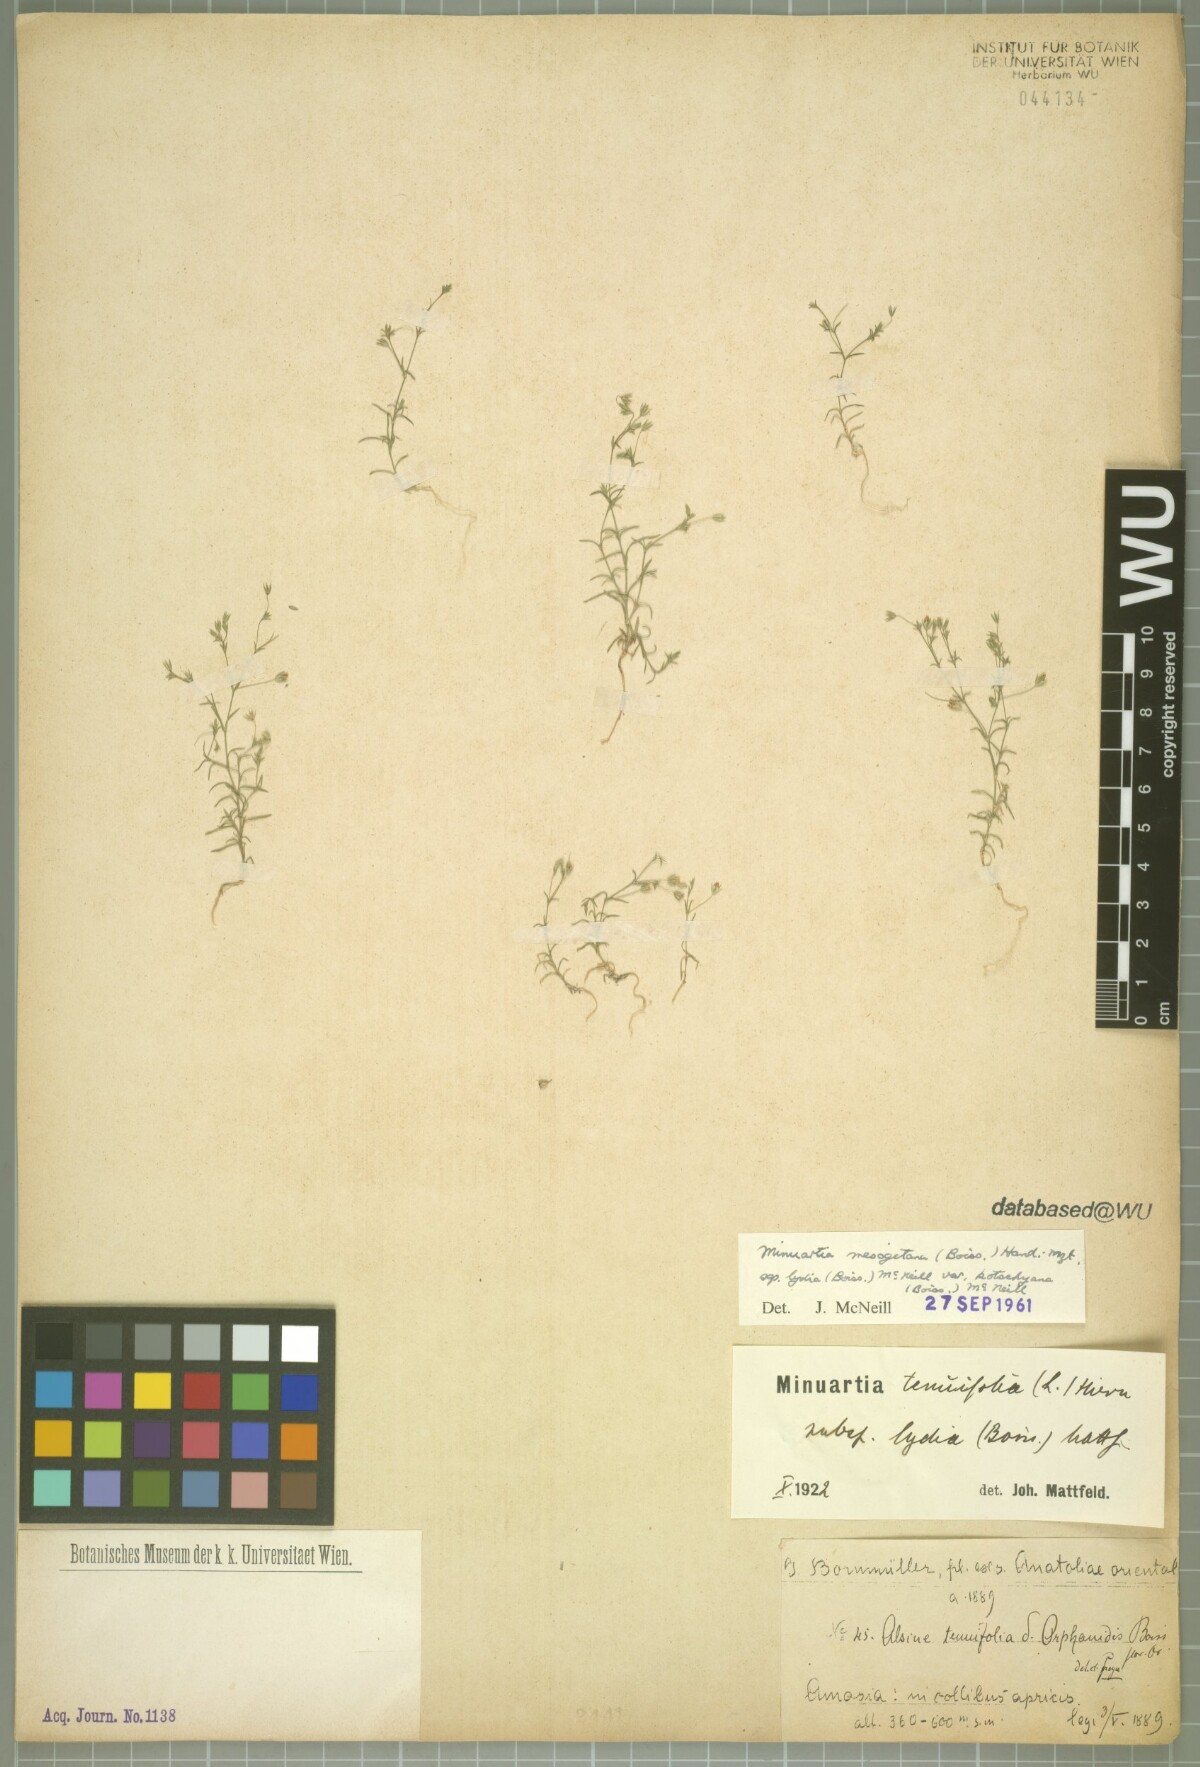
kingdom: Plantae
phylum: Tracheophyta
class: Magnoliopsida
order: Caryophyllales
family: Caryophyllaceae
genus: Sabulina
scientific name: Sabulina mesogitana
